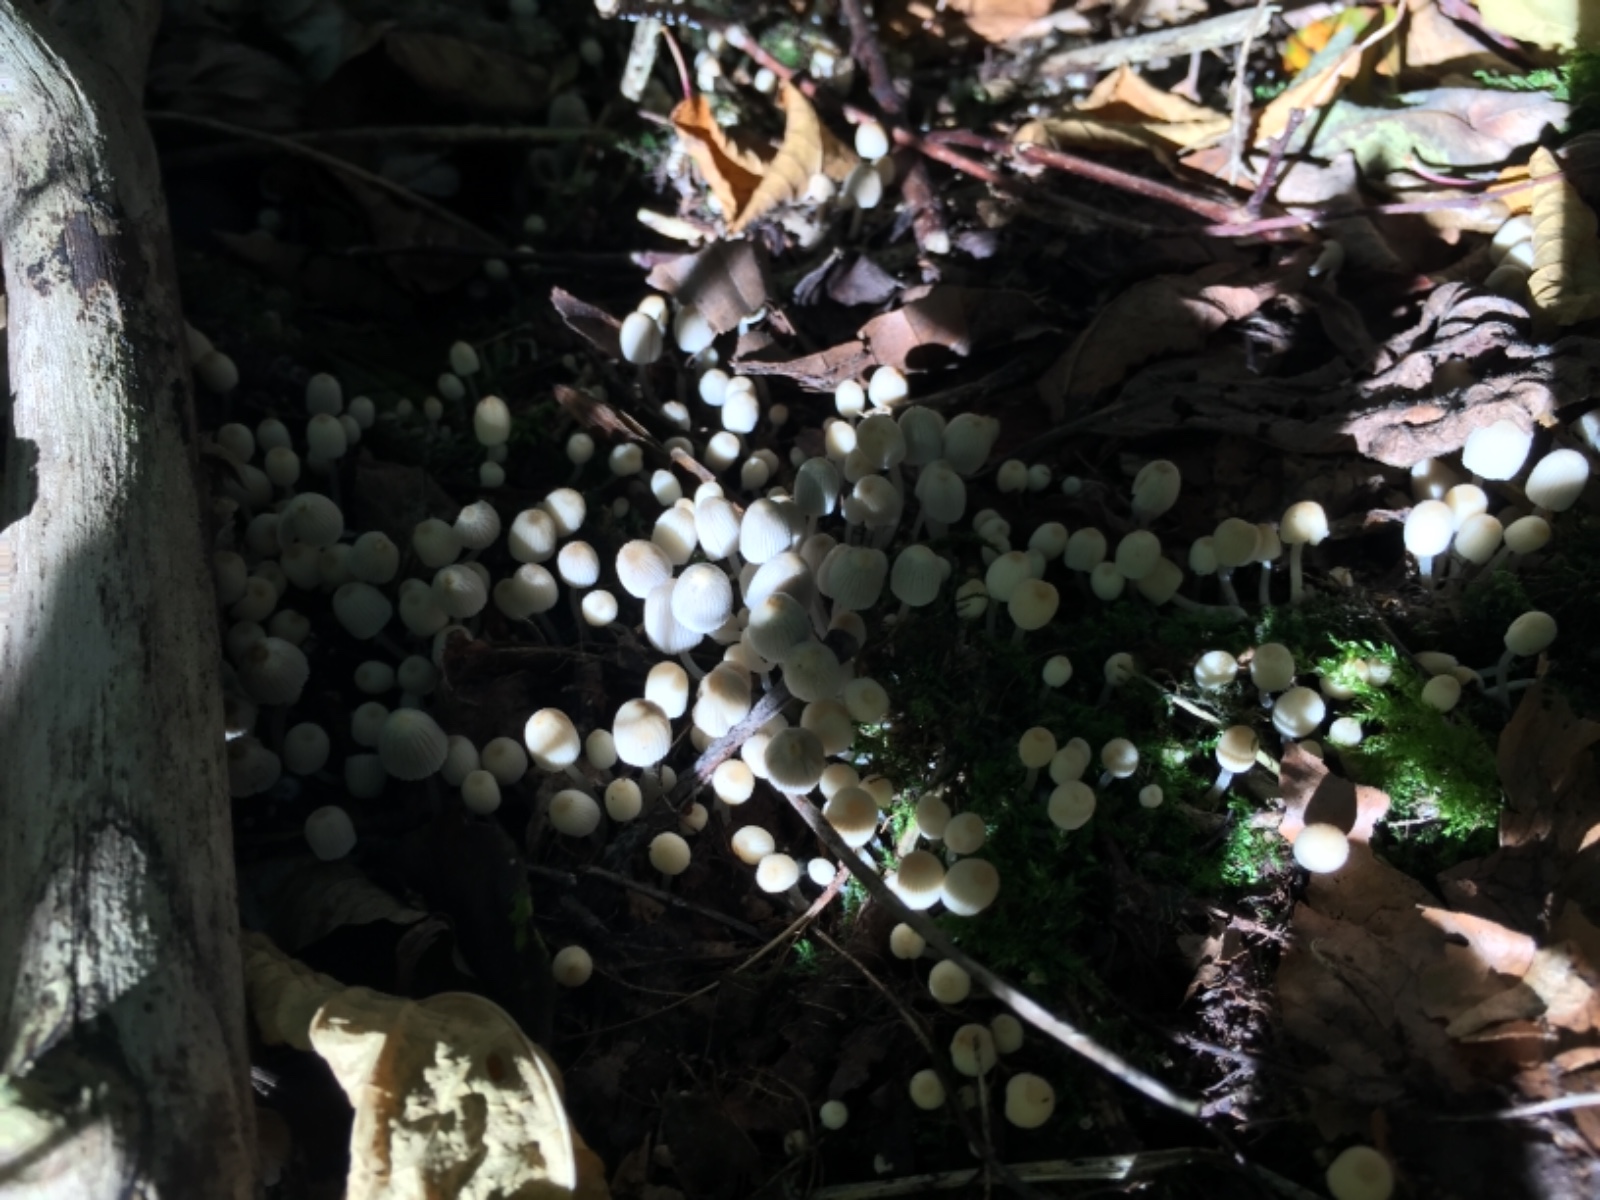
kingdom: Fungi
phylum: Basidiomycota
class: Agaricomycetes
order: Agaricales
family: Psathyrellaceae
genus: Coprinellus
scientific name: Coprinellus disseminatus
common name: bredsået blækhat
